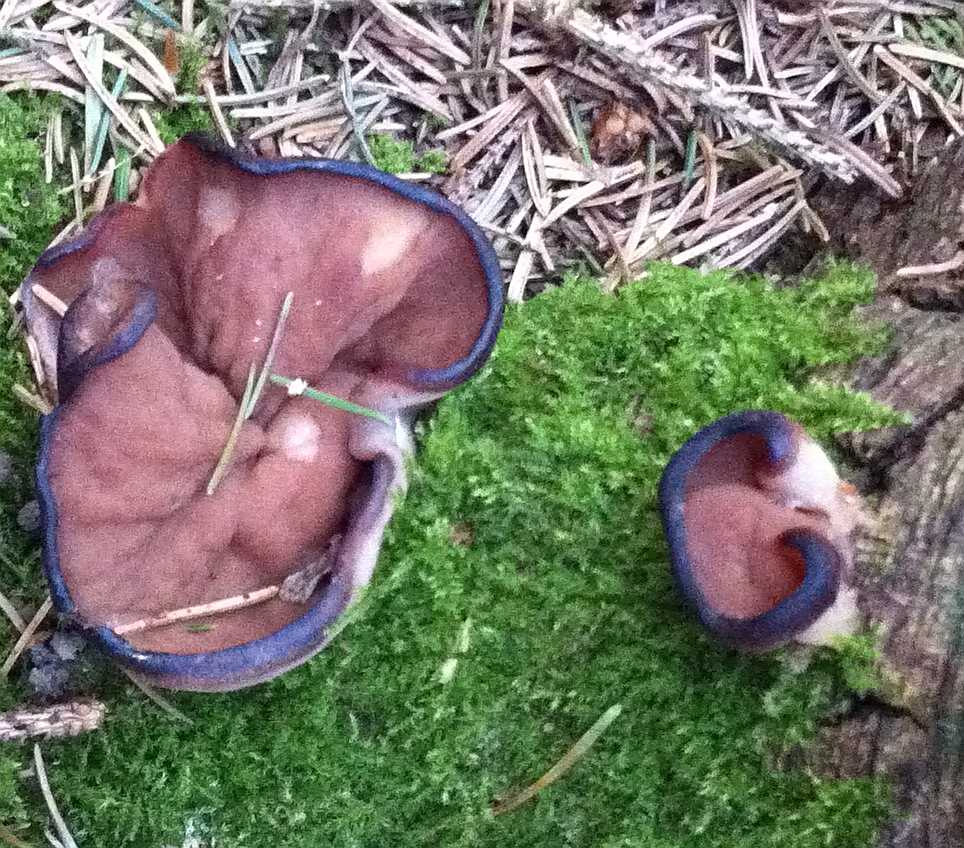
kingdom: Fungi
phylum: Ascomycota
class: Pezizomycetes
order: Pezizales
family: Discinaceae
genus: Discina
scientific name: Discina ancilis
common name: udbredt stenmorkel
